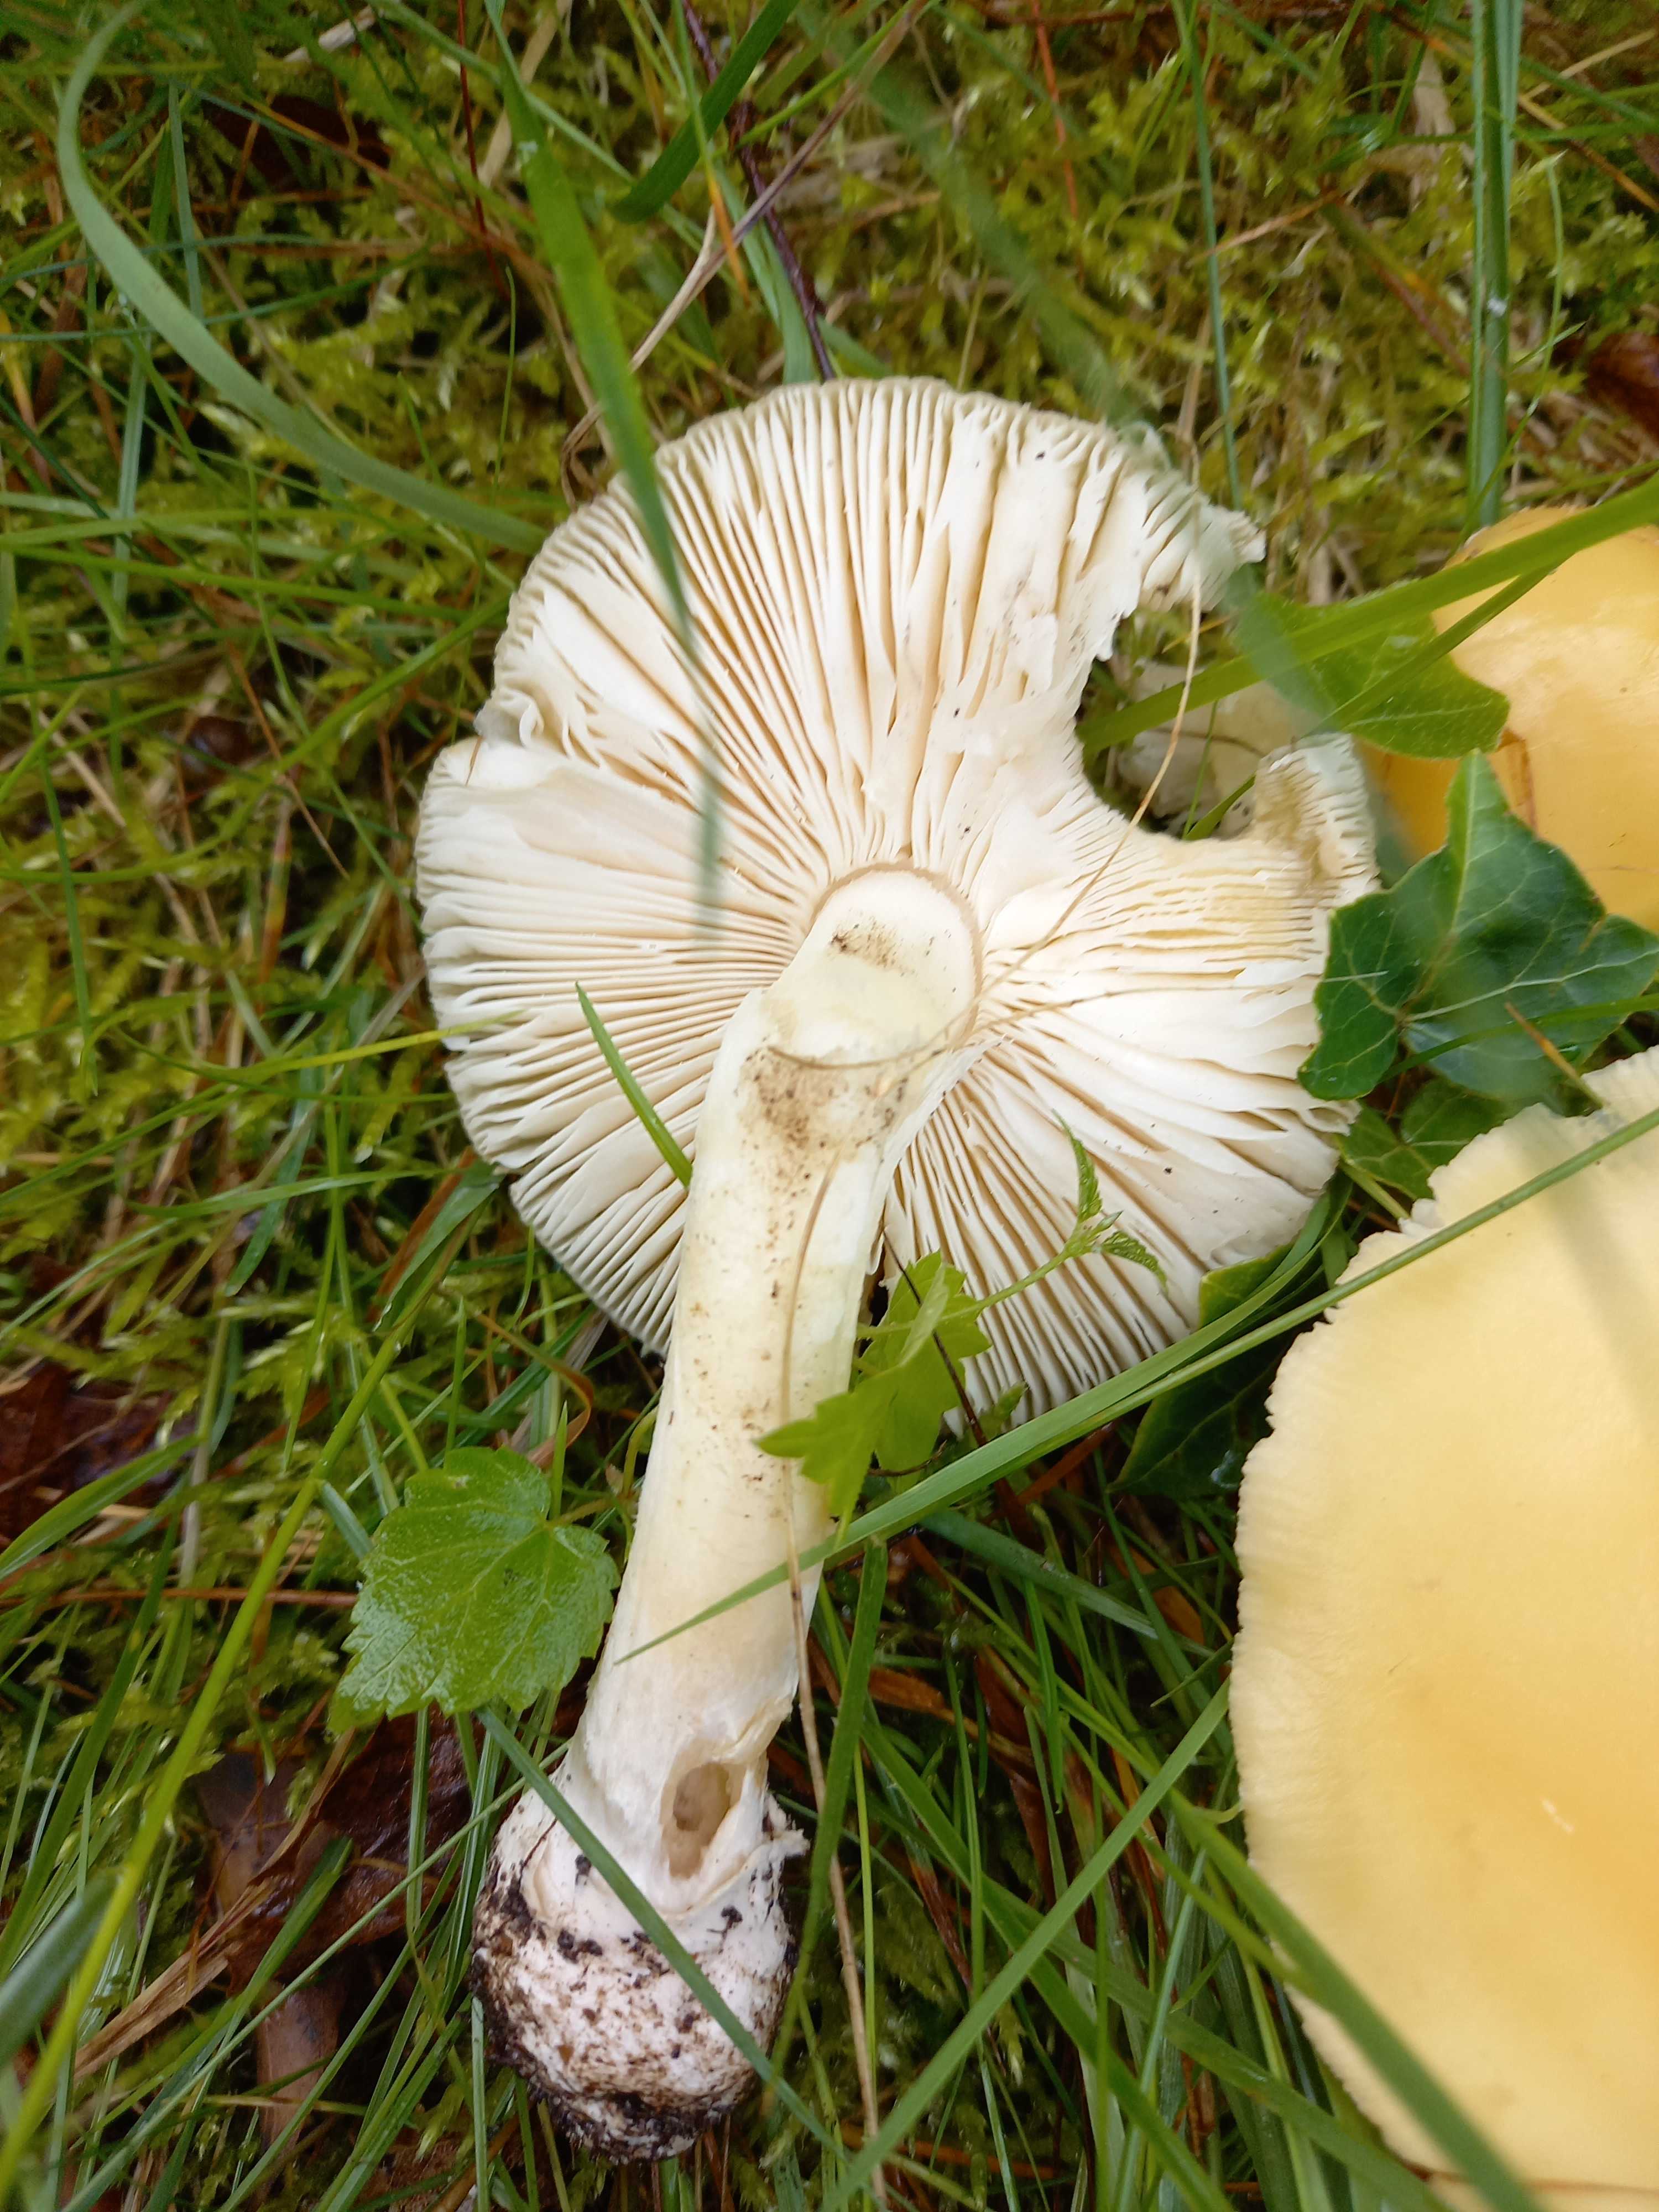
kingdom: Fungi
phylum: Basidiomycota
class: Agaricomycetes
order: Agaricales
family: Amanitaceae
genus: Amanita
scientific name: Amanita gemmata
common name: okkergul fluesvamp
